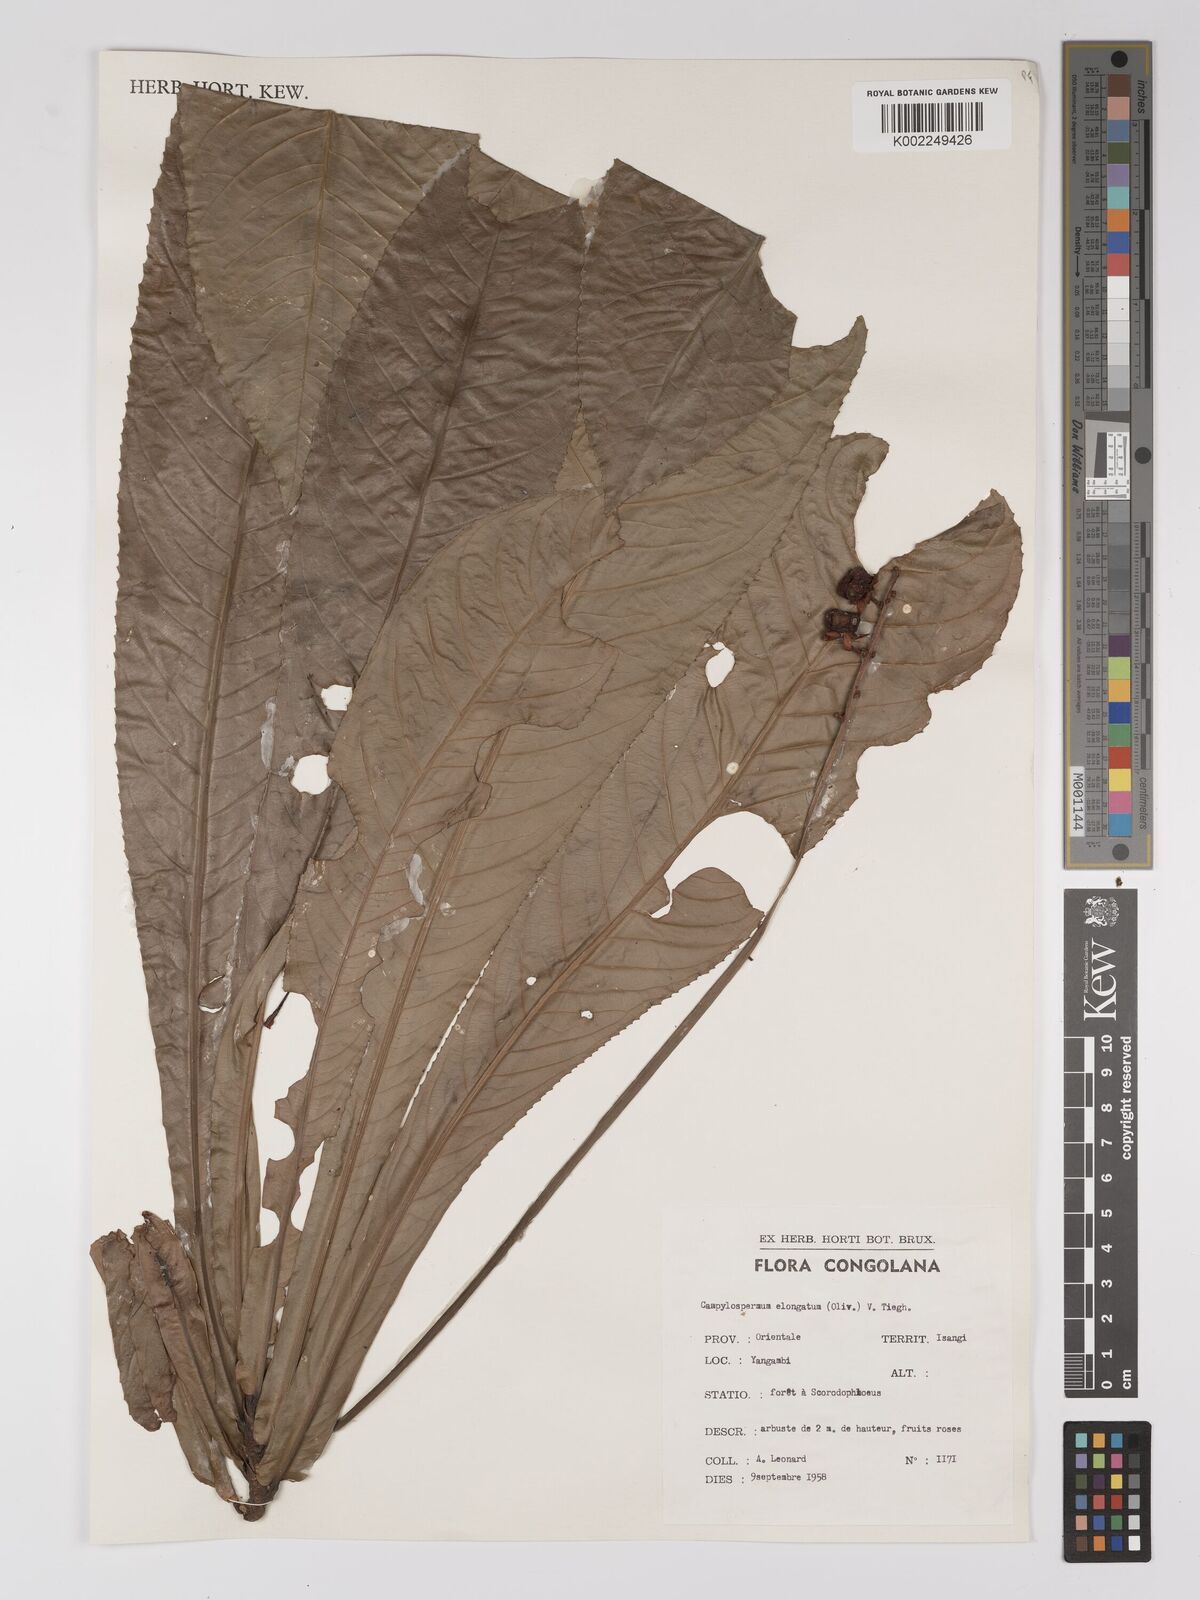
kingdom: Plantae
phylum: Tracheophyta
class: Magnoliopsida
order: Malpighiales
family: Ochnaceae
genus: Gomphia
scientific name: Gomphia elongata
